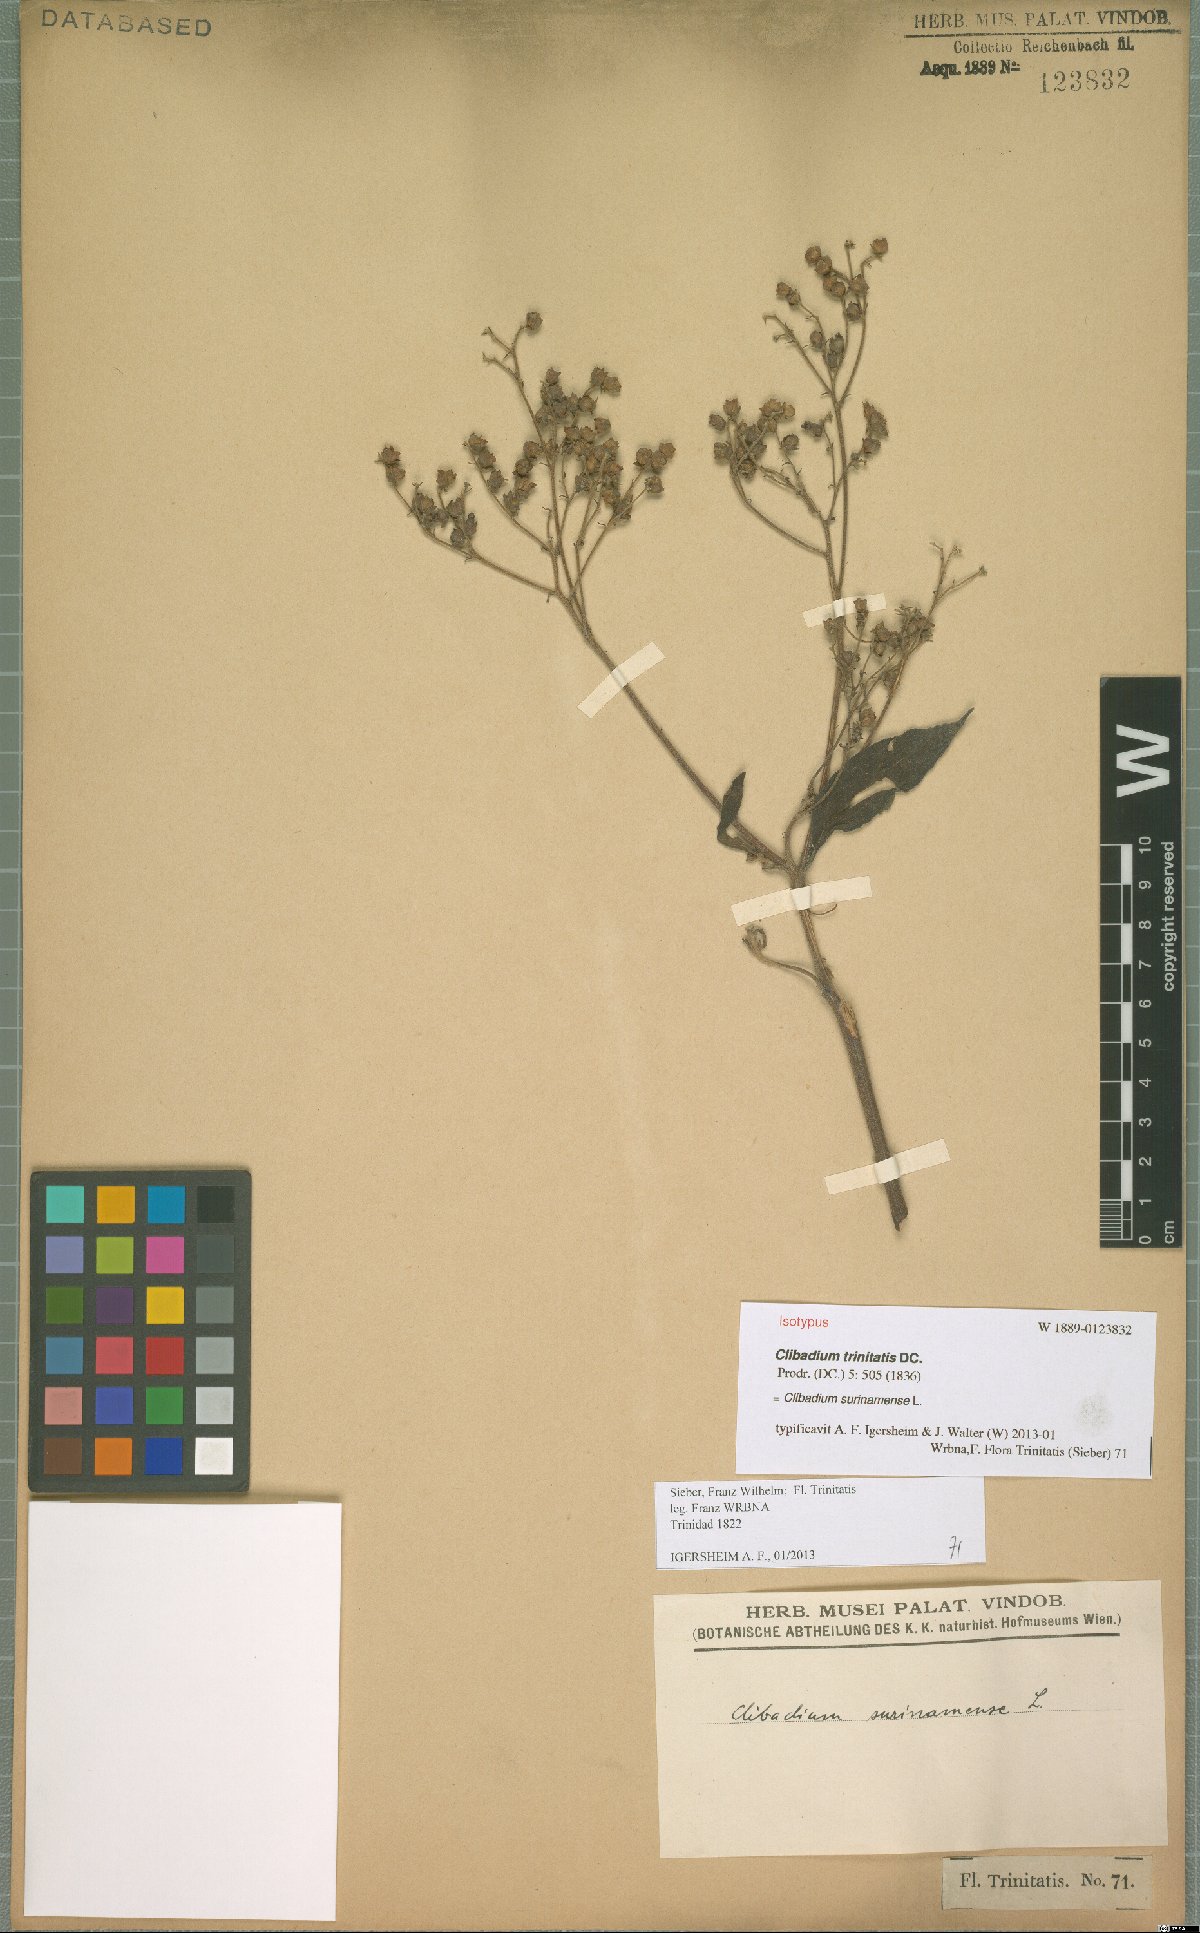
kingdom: Plantae
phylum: Tracheophyta
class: Magnoliopsida
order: Asterales
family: Asteraceae
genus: Clibadium
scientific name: Clibadium surinamense
